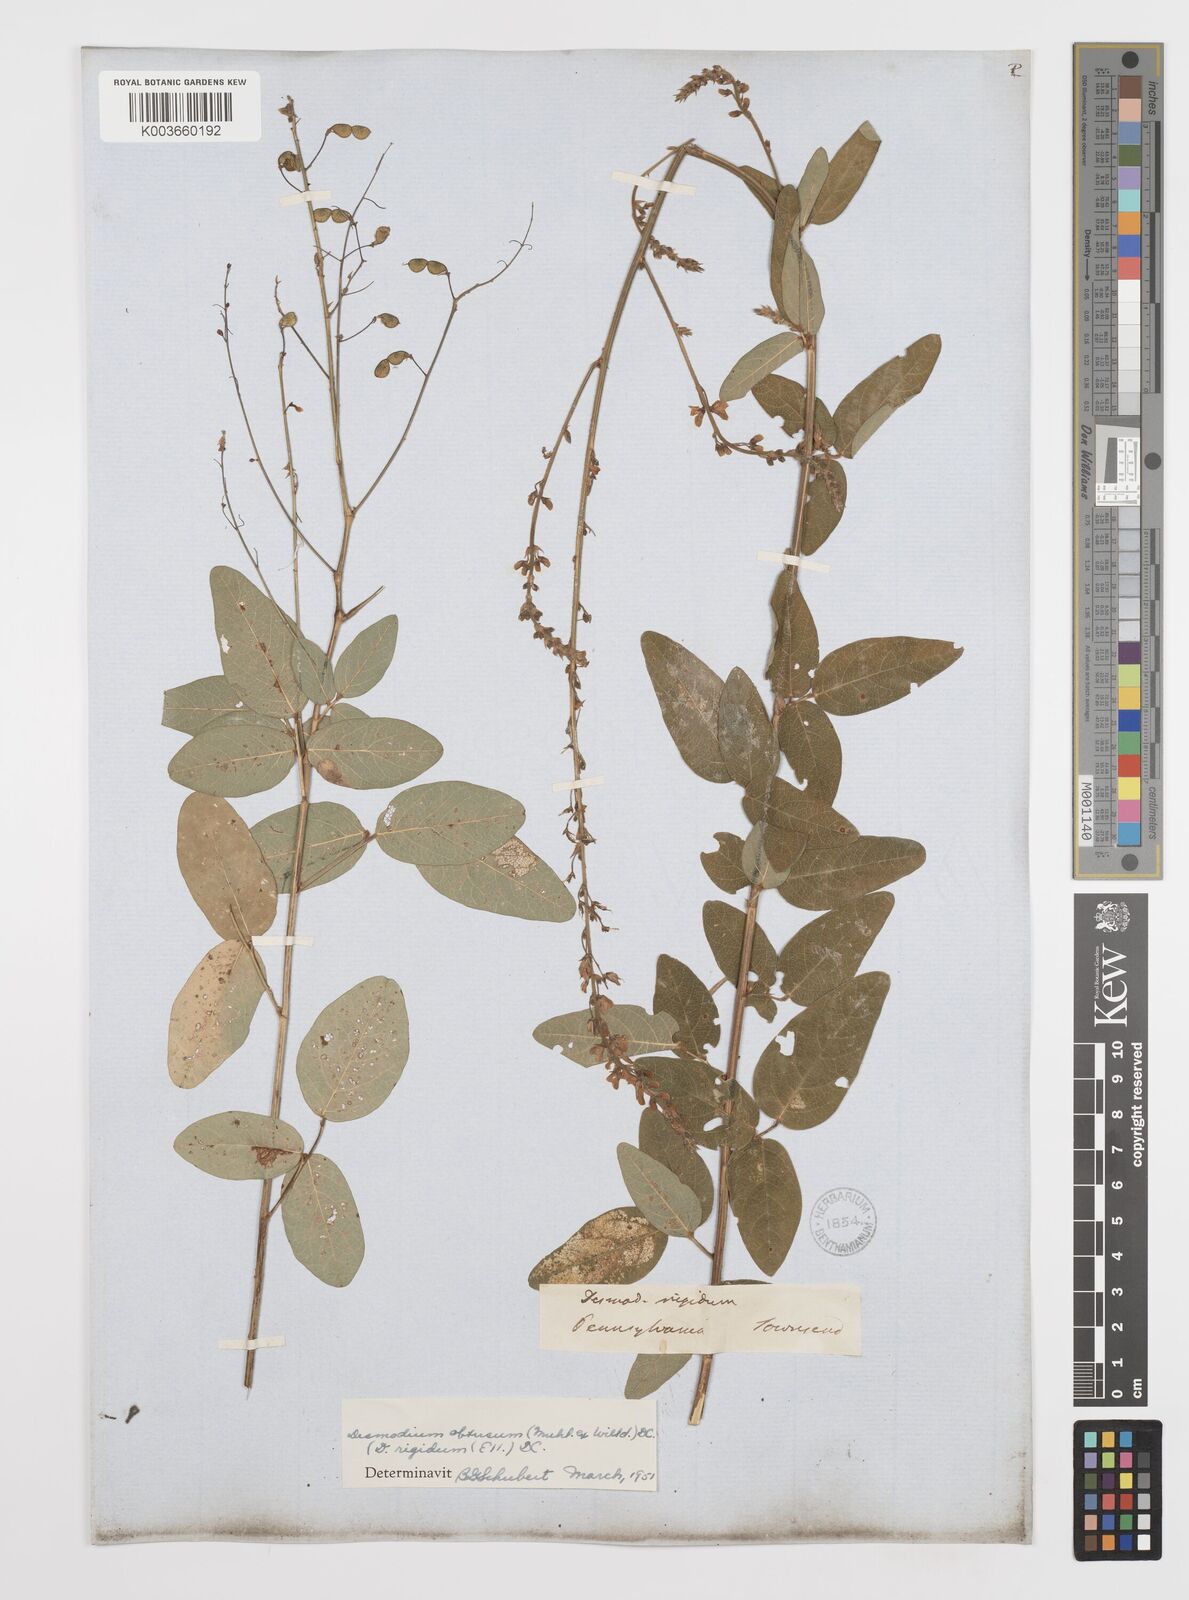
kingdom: Plantae
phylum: Tracheophyta
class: Magnoliopsida
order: Fabales
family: Fabaceae
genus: Desmodium
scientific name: Desmodium obtusum
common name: Stiff tick trefoil
